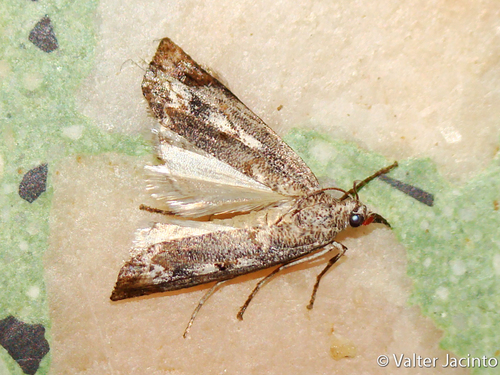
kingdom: Animalia
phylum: Arthropoda
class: Insecta
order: Lepidoptera
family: Crambidae
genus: Agriphila
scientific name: Agriphila cyrenaicellus
